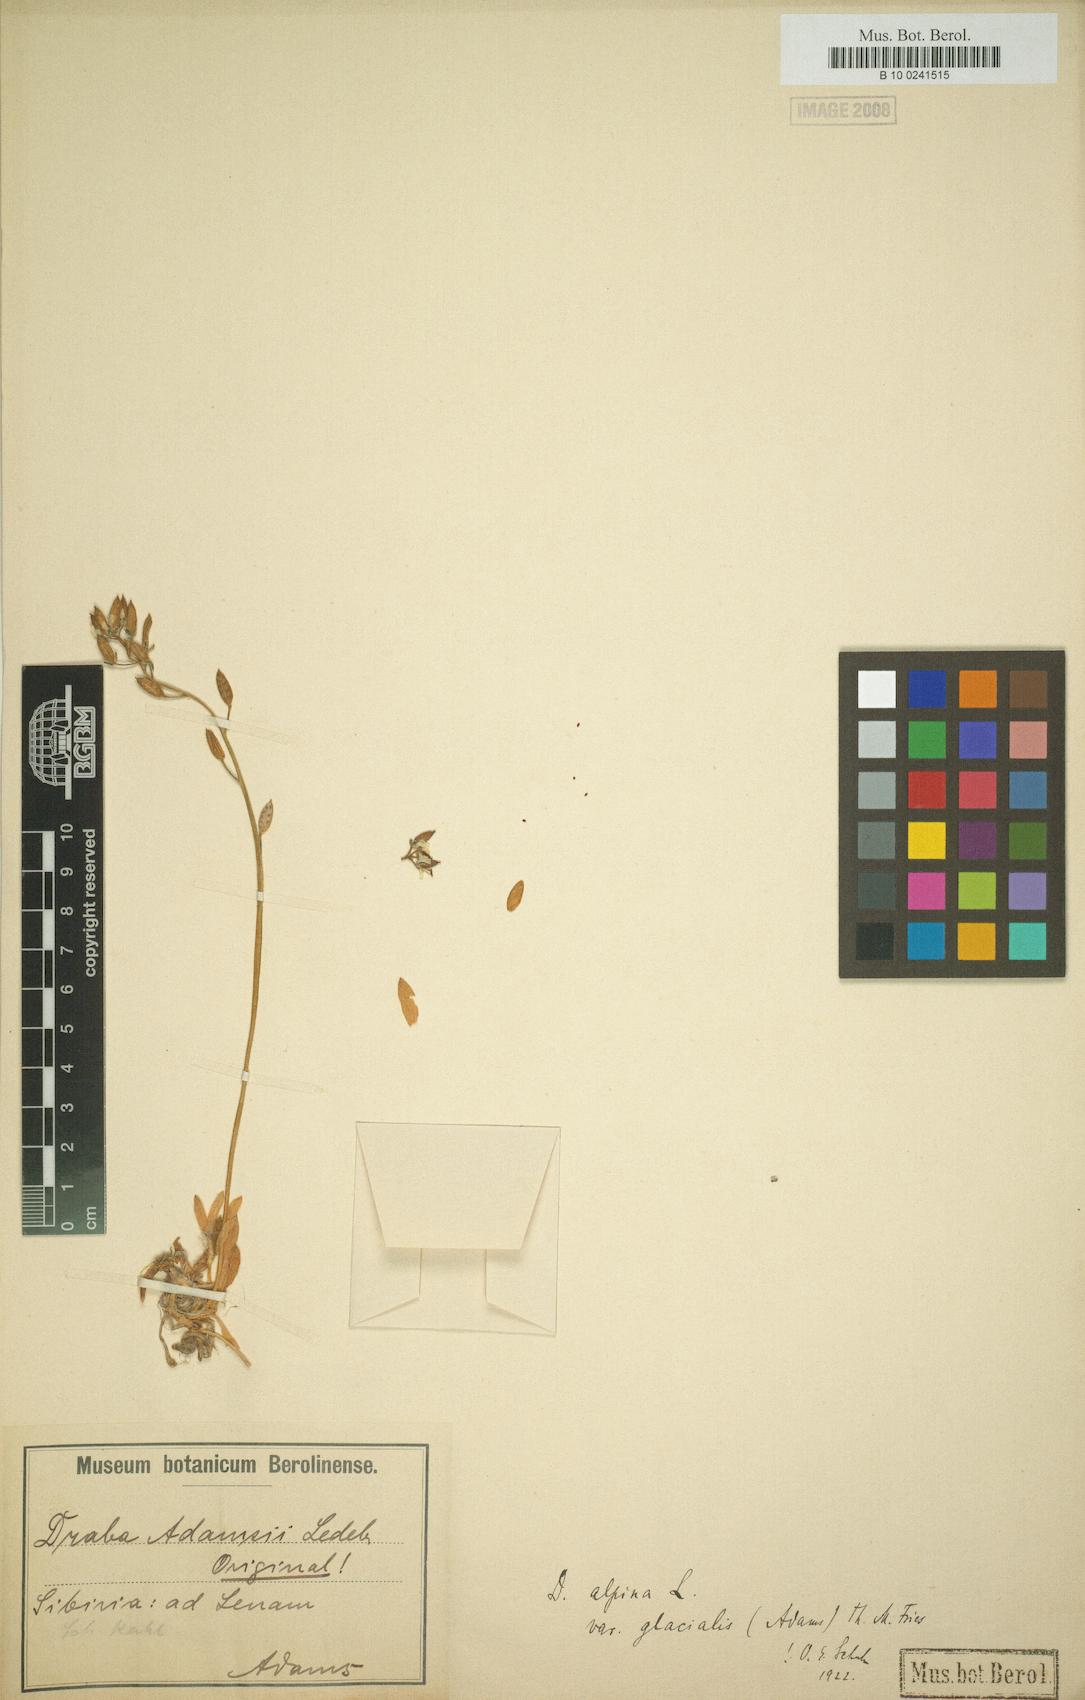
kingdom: Plantae
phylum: Tracheophyta
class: Magnoliopsida
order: Brassicales
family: Brassicaceae
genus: Draba
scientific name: Draba glacialis
